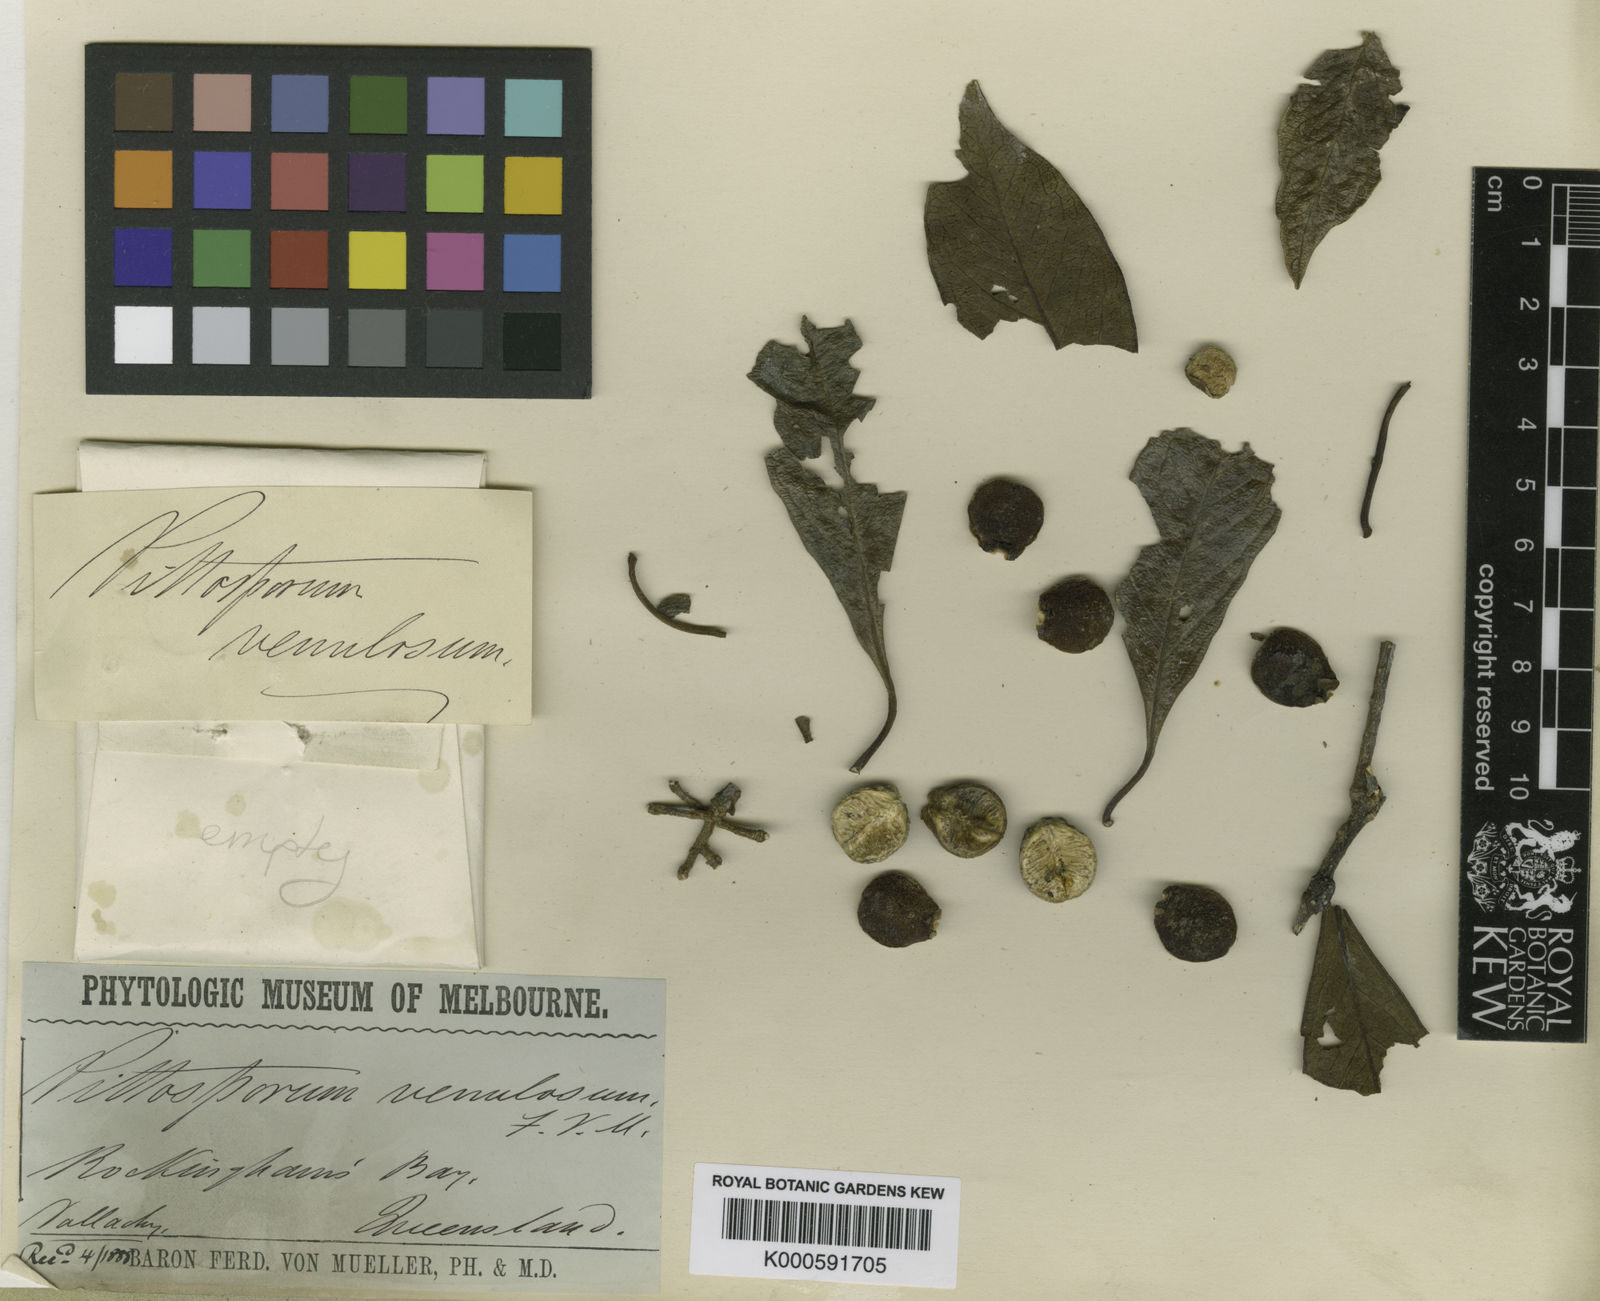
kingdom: Plantae
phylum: Tracheophyta
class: Magnoliopsida
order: Apiales
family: Pittosporaceae
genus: Pittosporum
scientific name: Pittosporum venulosum
